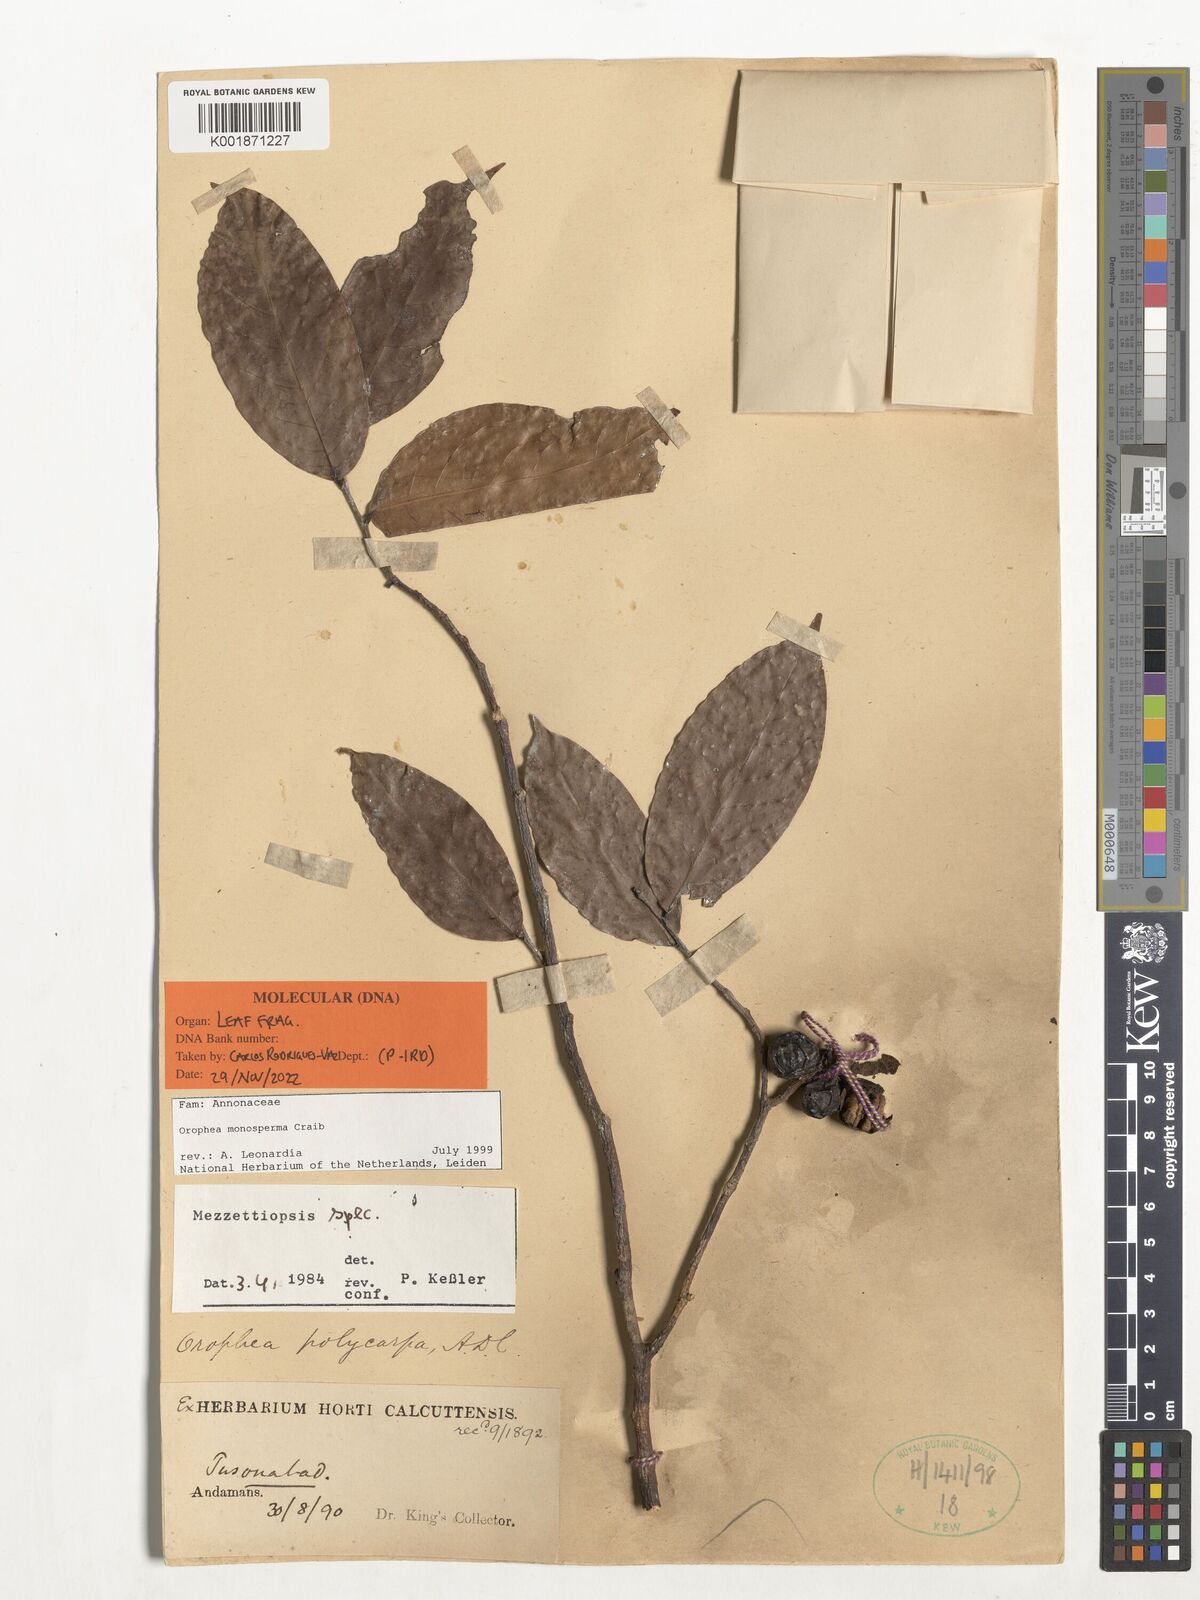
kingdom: Plantae
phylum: Tracheophyta
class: Magnoliopsida
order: Magnoliales
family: Annonaceae
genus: Orophea
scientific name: Orophea monosperma
